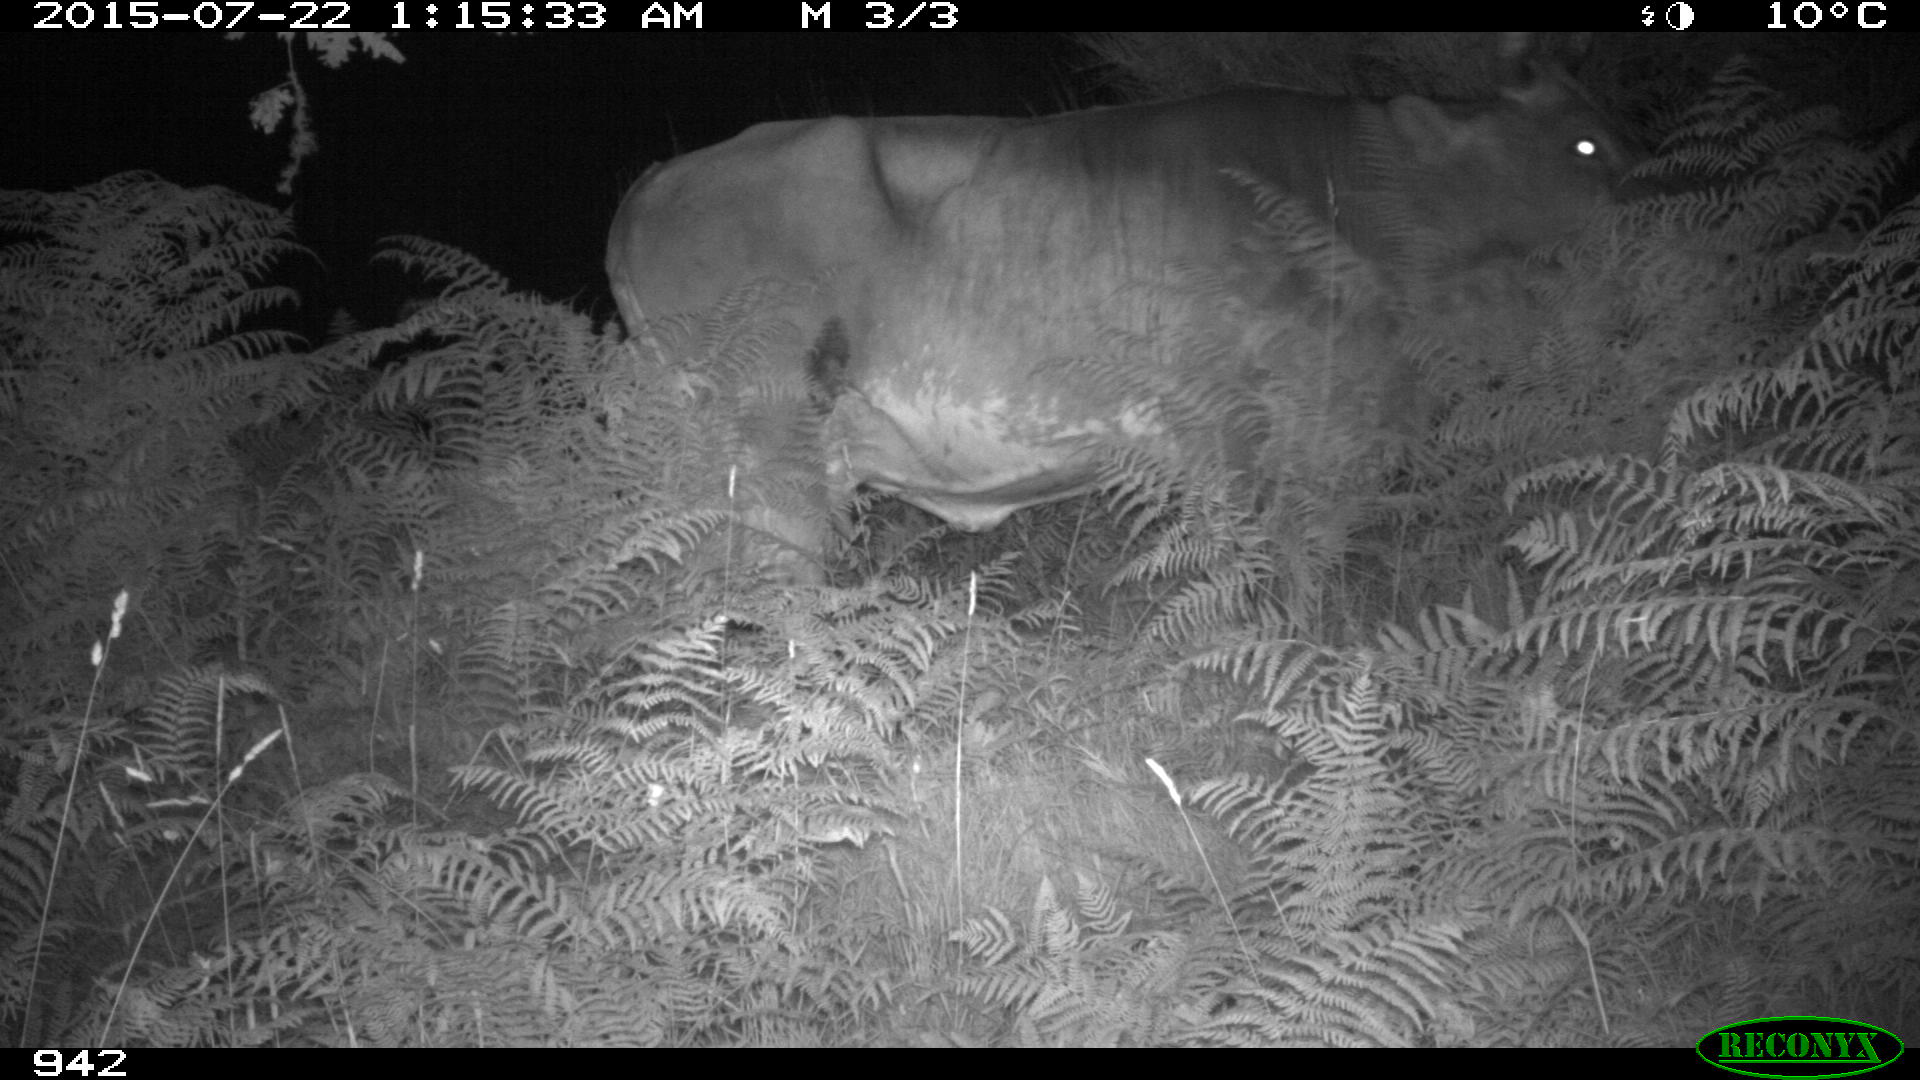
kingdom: Animalia
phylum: Chordata
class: Mammalia
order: Artiodactyla
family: Bovidae
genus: Bos
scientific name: Bos taurus
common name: Domesticated cattle
